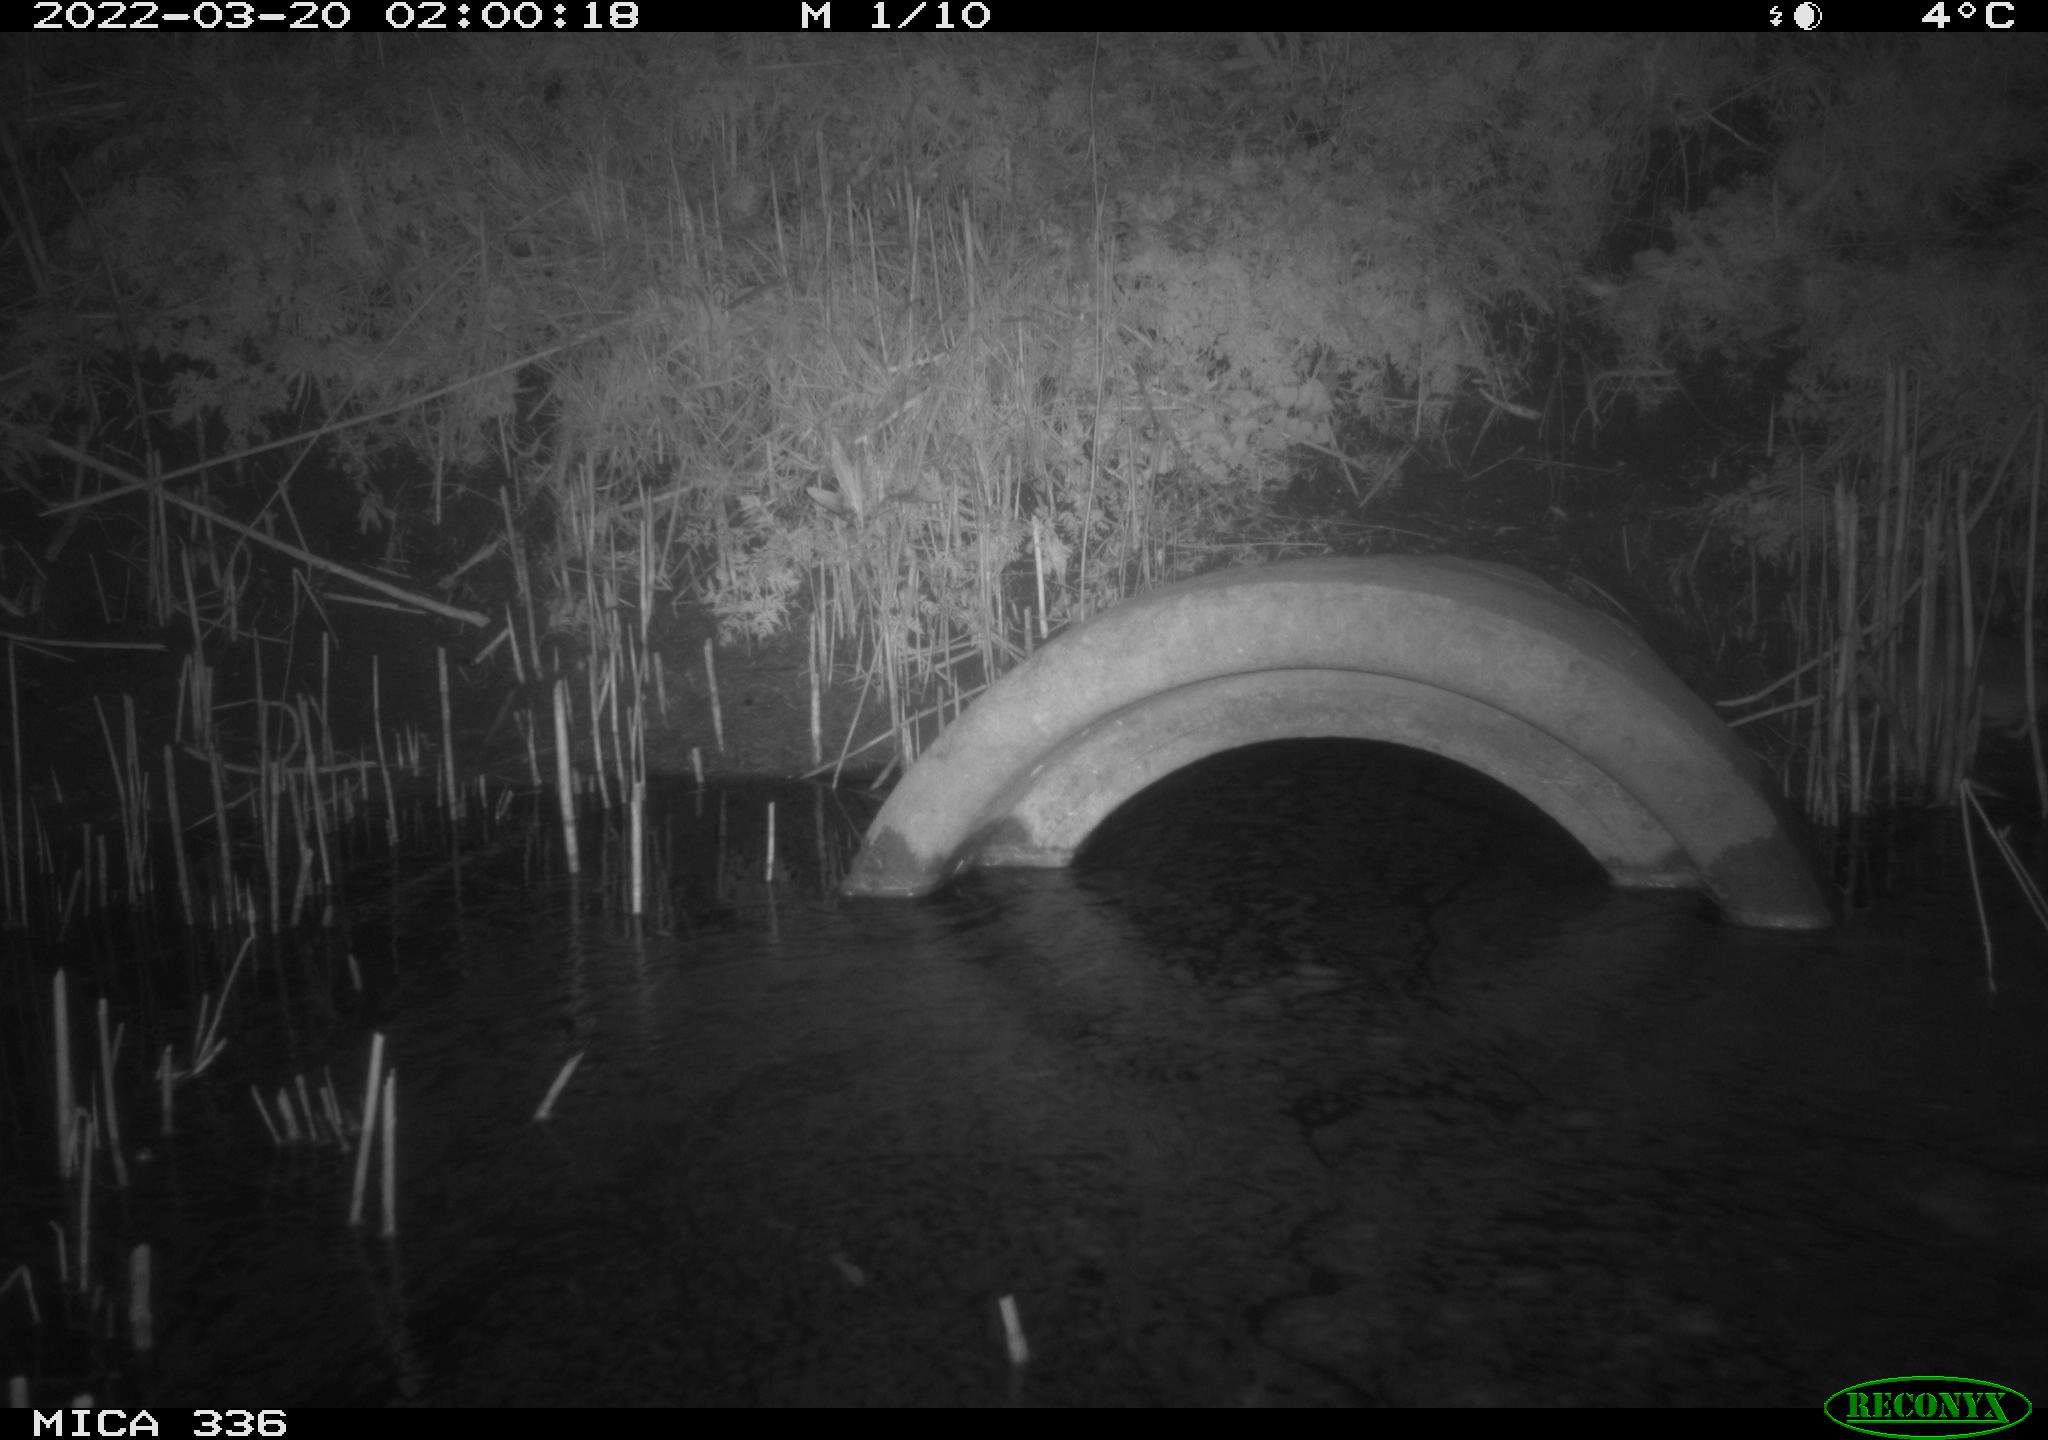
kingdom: Animalia
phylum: Chordata
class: Mammalia
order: Rodentia
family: Muridae
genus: Rattus
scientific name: Rattus norvegicus
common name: Brown rat
